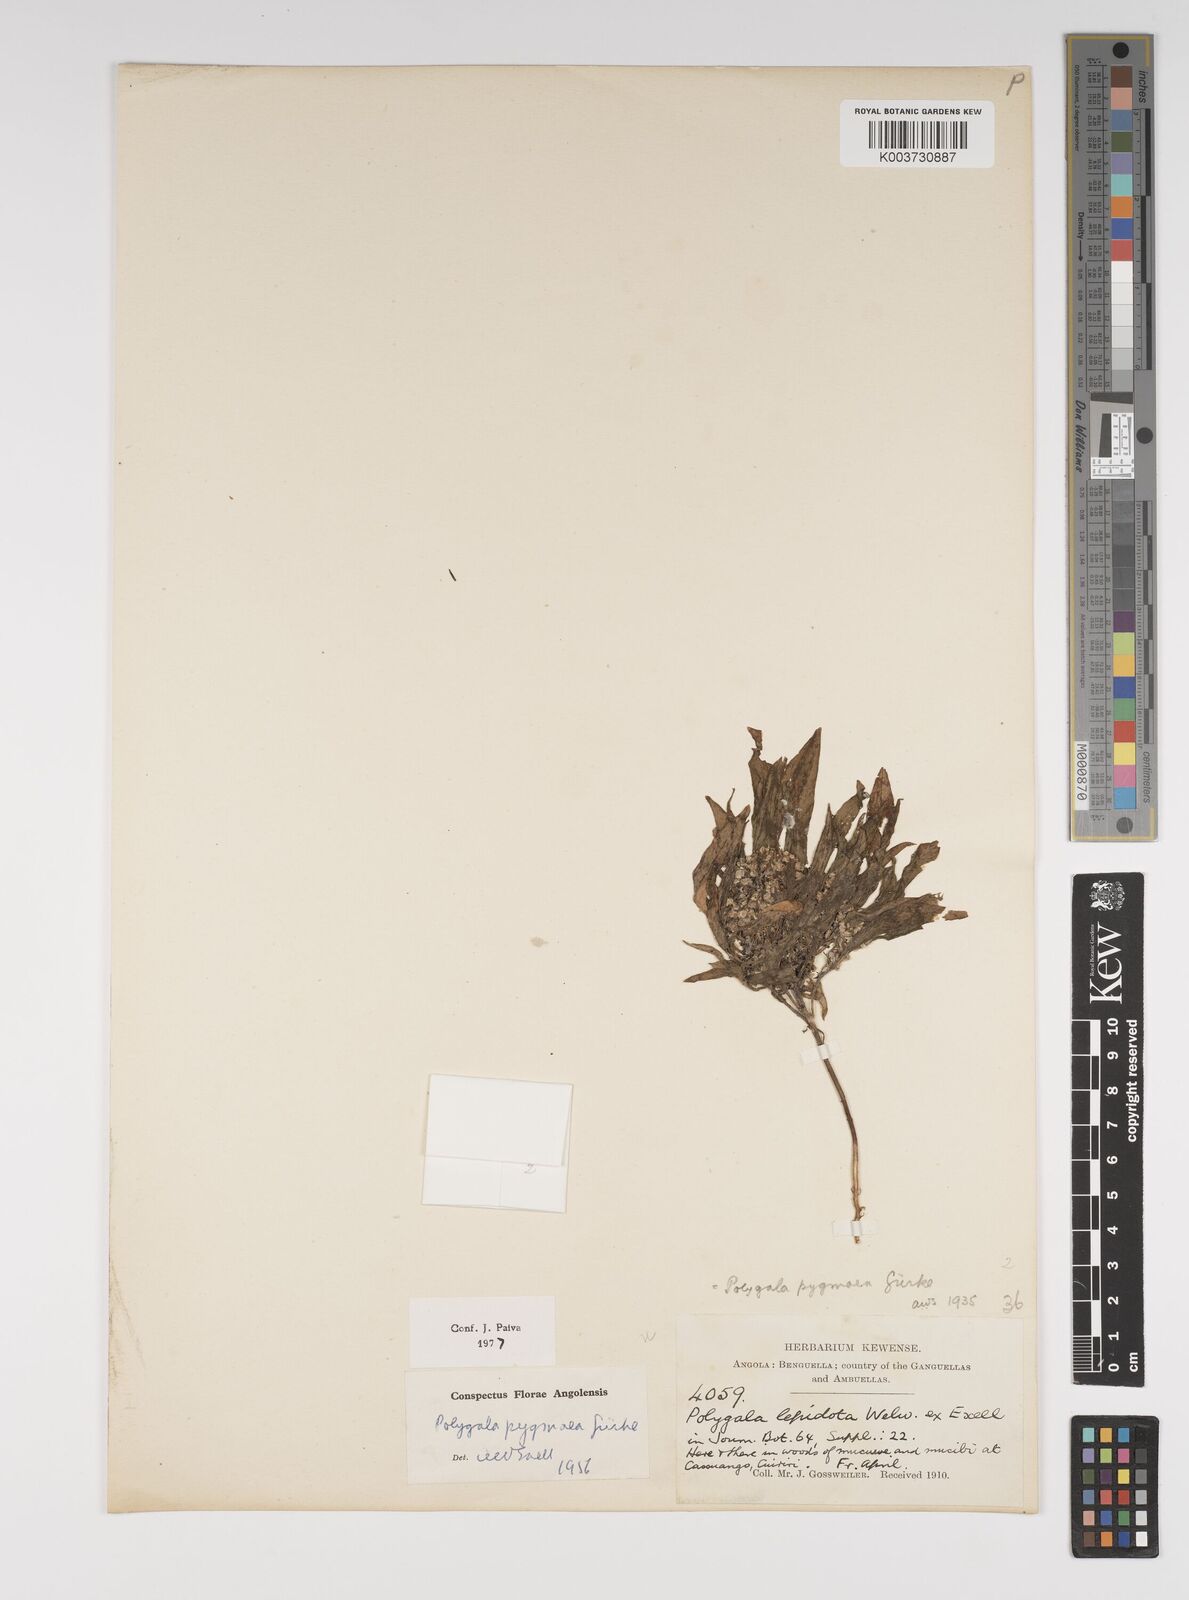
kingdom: Plantae
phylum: Tracheophyta
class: Magnoliopsida
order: Fabales
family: Polygalaceae
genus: Polygala
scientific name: Polygala welwitschii
